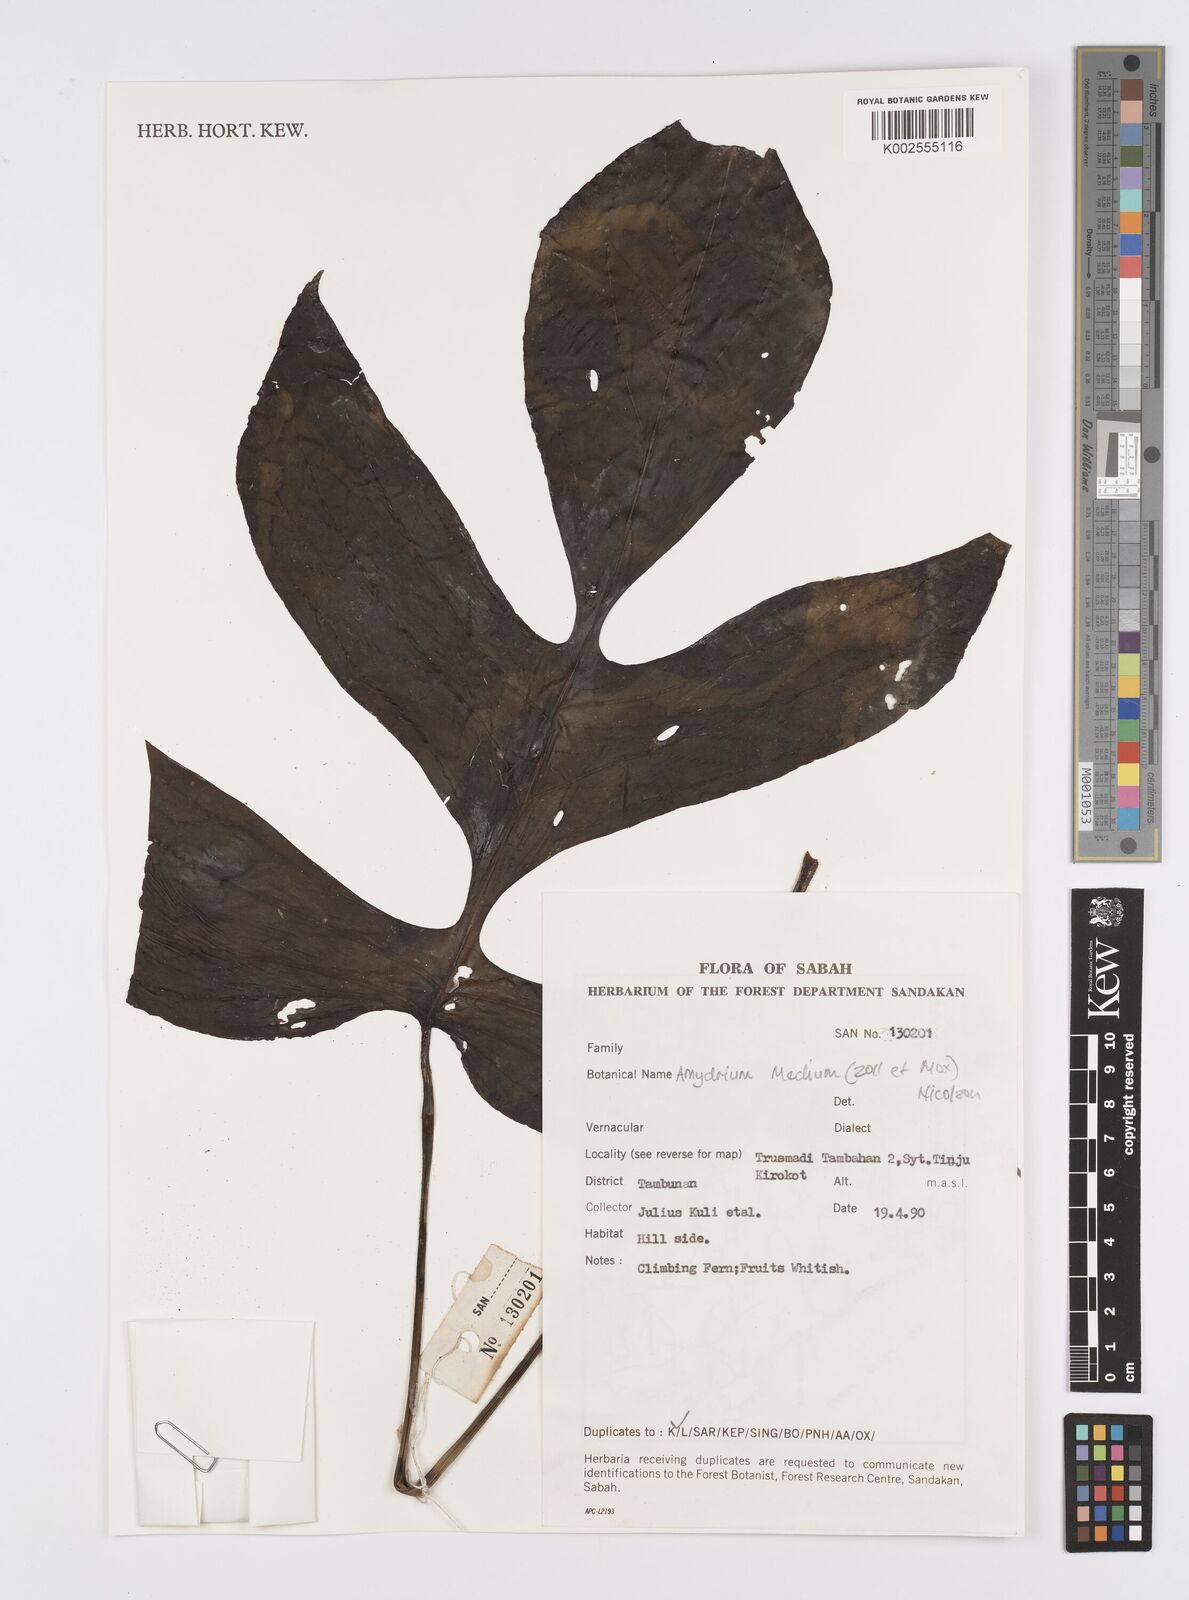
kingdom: Plantae
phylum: Tracheophyta
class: Liliopsida
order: Alismatales
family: Araceae
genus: Amydrium
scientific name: Amydrium medium
